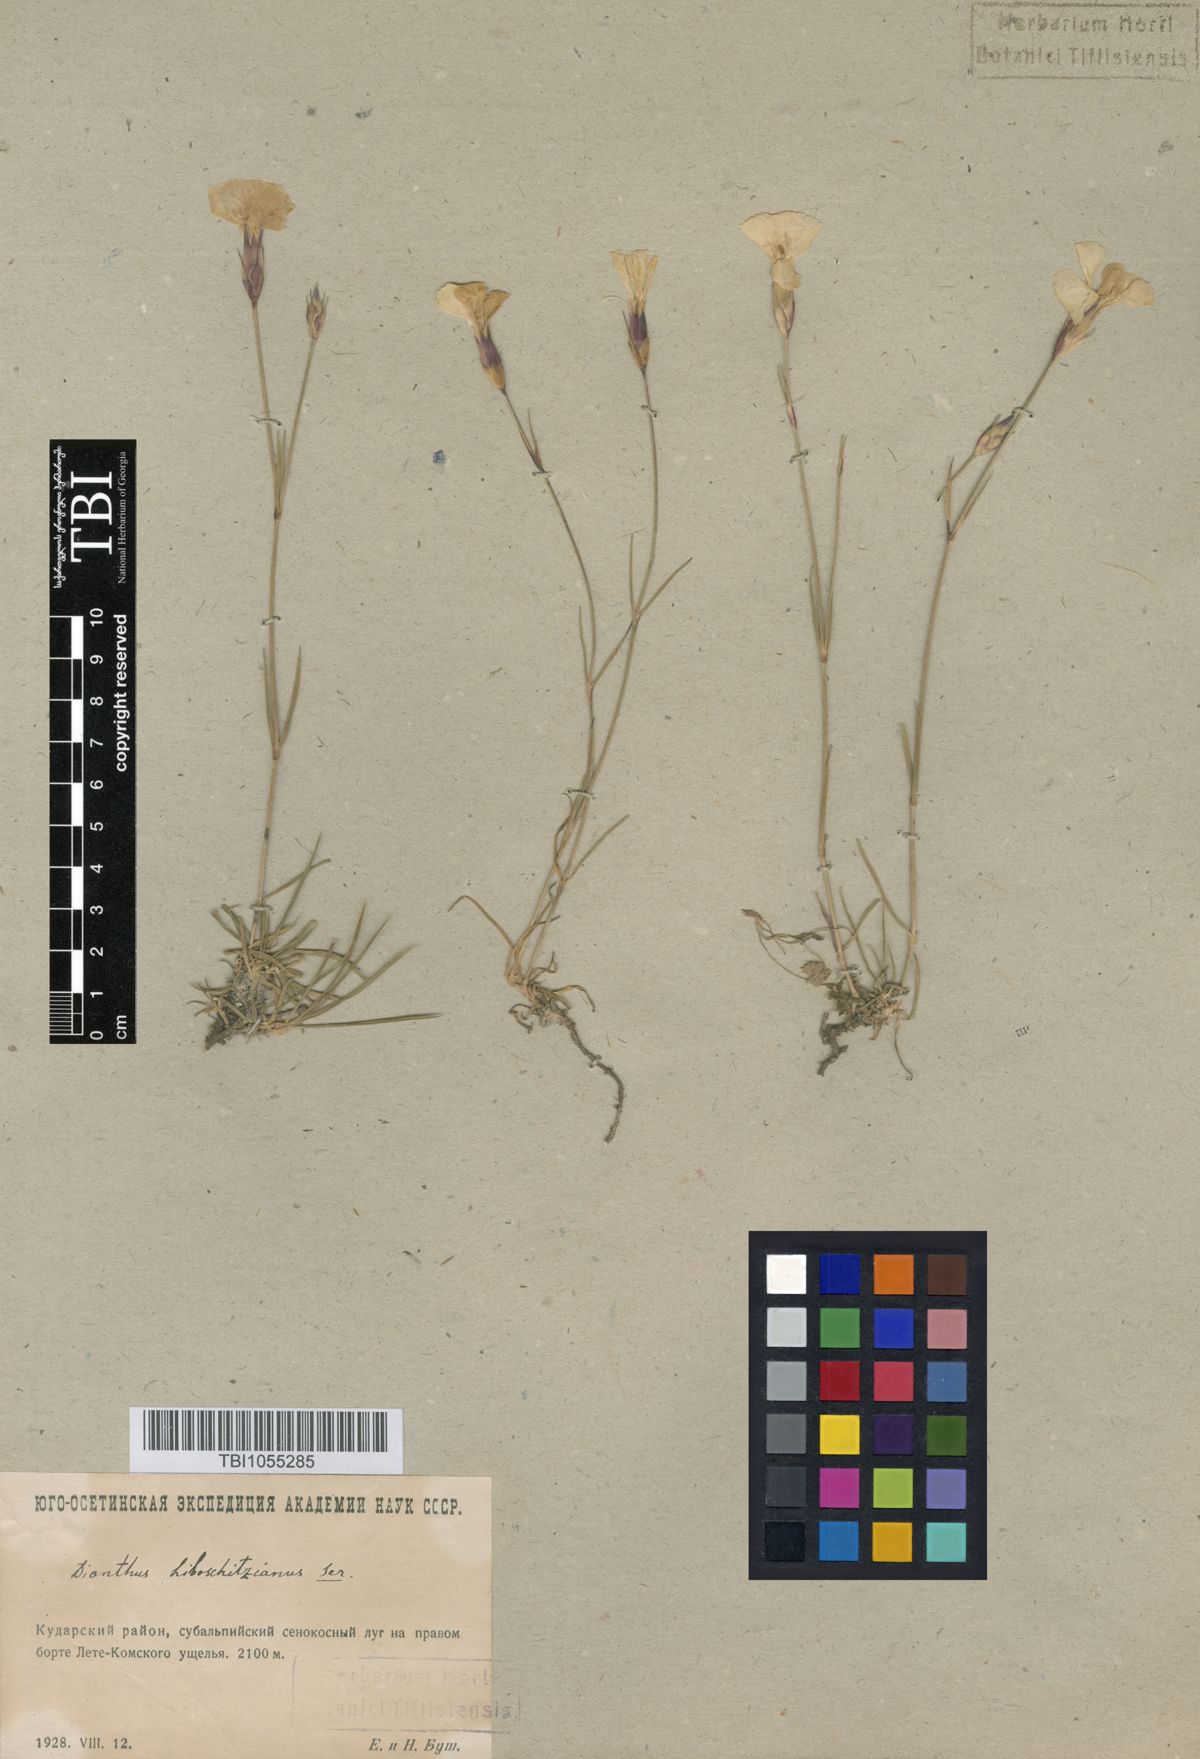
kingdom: Plantae
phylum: Tracheophyta
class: Magnoliopsida
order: Caryophyllales
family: Caryophyllaceae
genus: Dianthus
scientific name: Dianthus cretaceus
